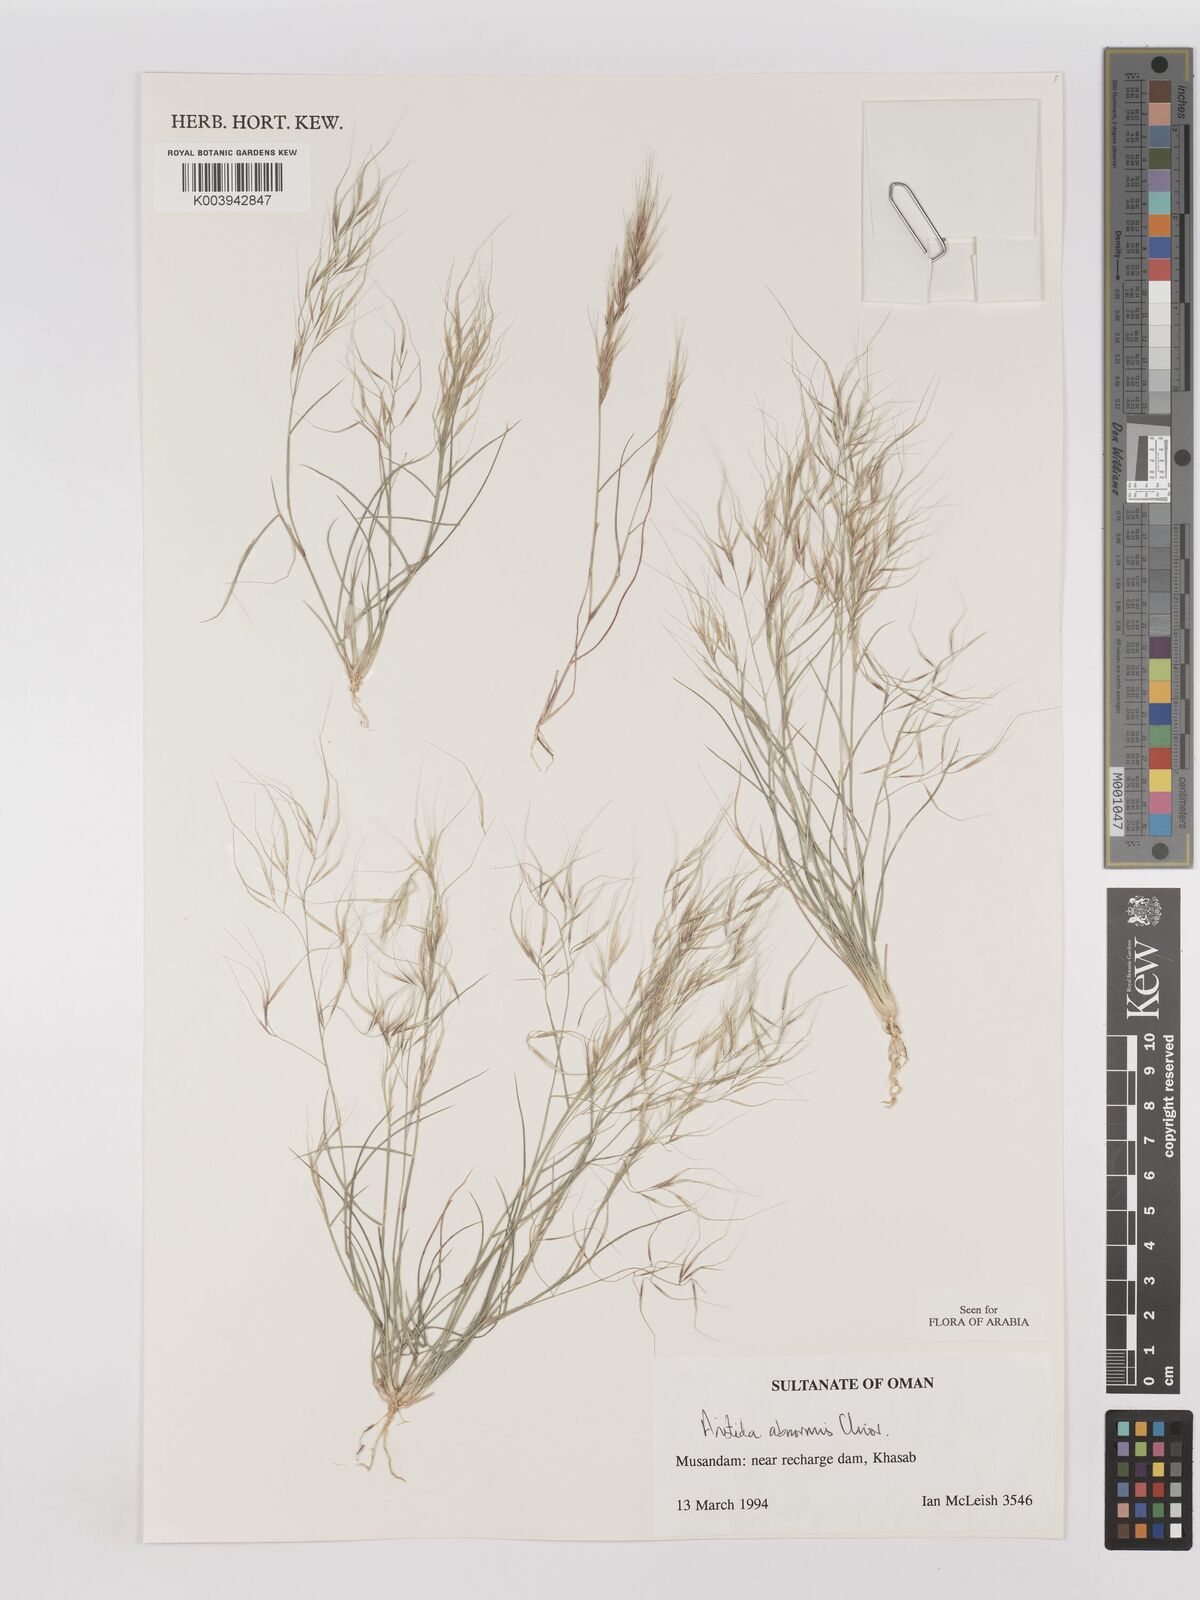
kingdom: Plantae
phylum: Tracheophyta
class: Liliopsida
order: Poales
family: Poaceae
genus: Aristida
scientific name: Aristida abnormis
